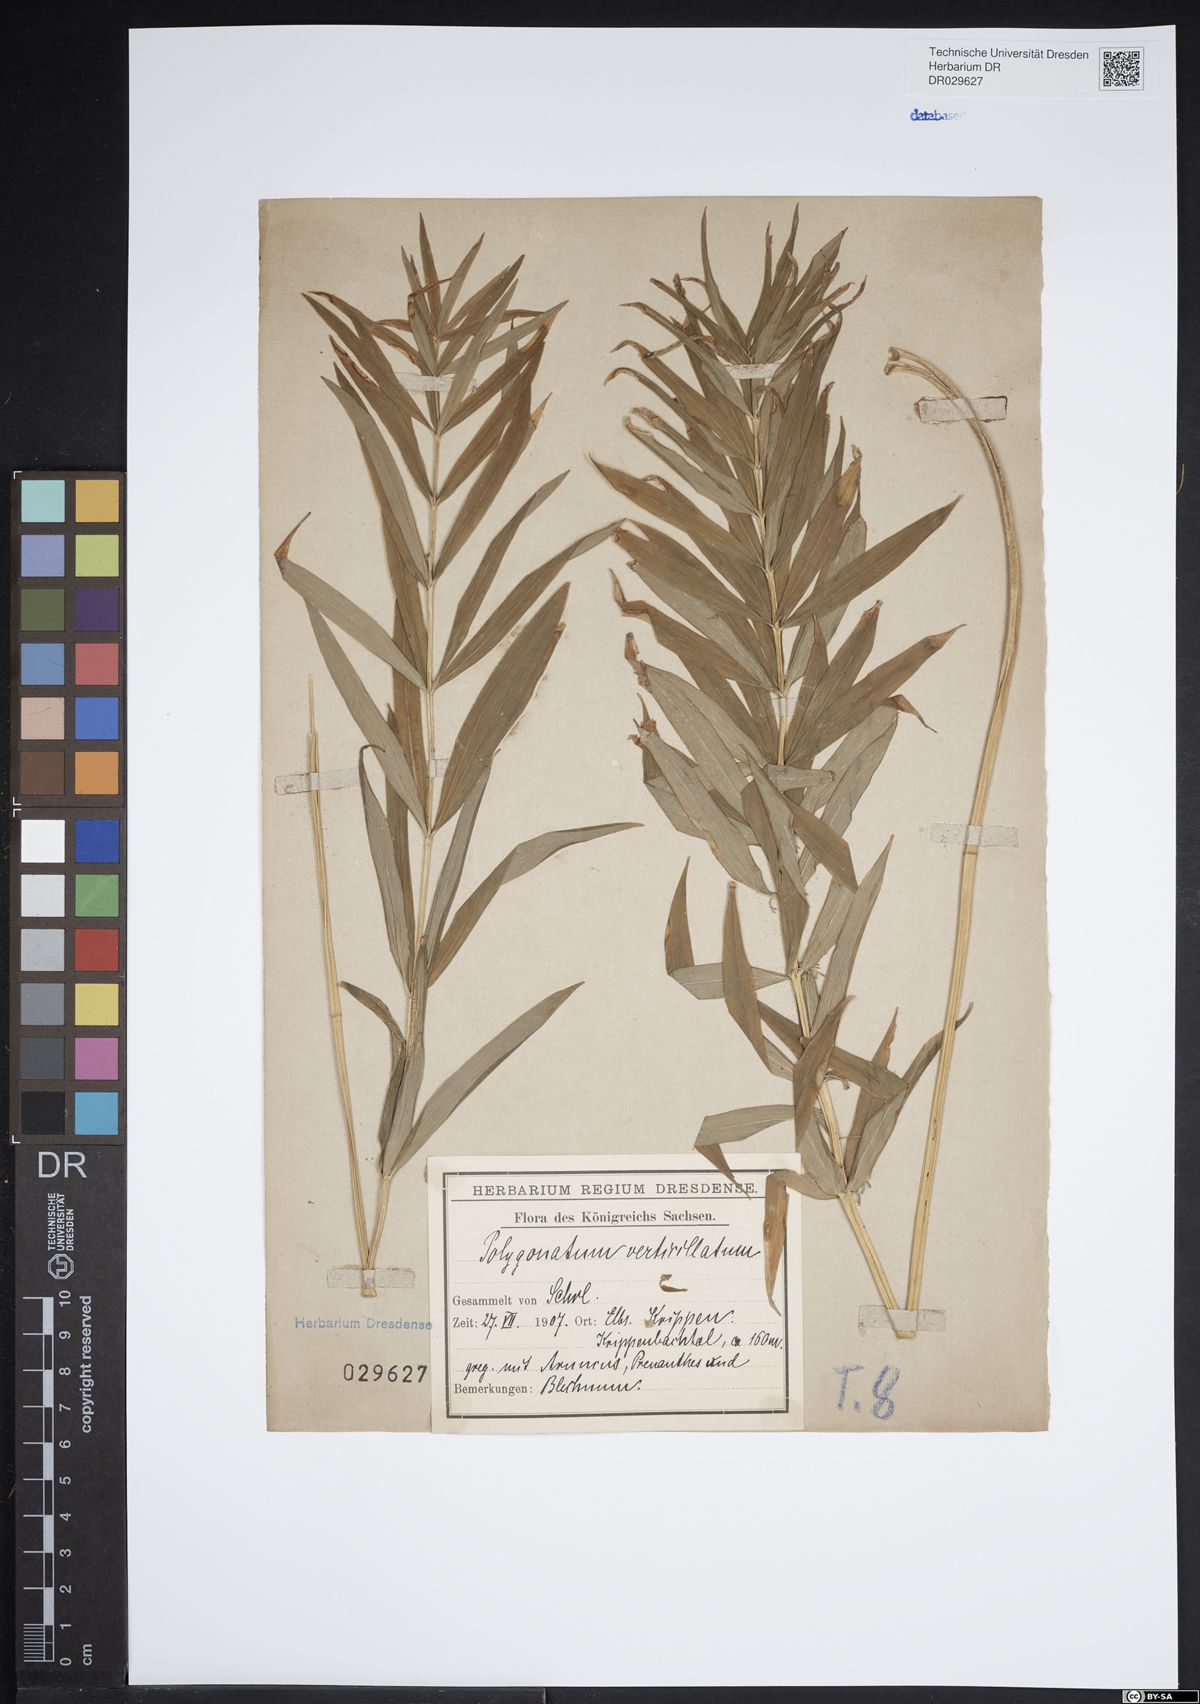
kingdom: Plantae
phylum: Tracheophyta
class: Liliopsida
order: Asparagales
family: Asparagaceae
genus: Polygonatum
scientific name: Polygonatum verticillatum
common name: Whorled solomon's-seal
